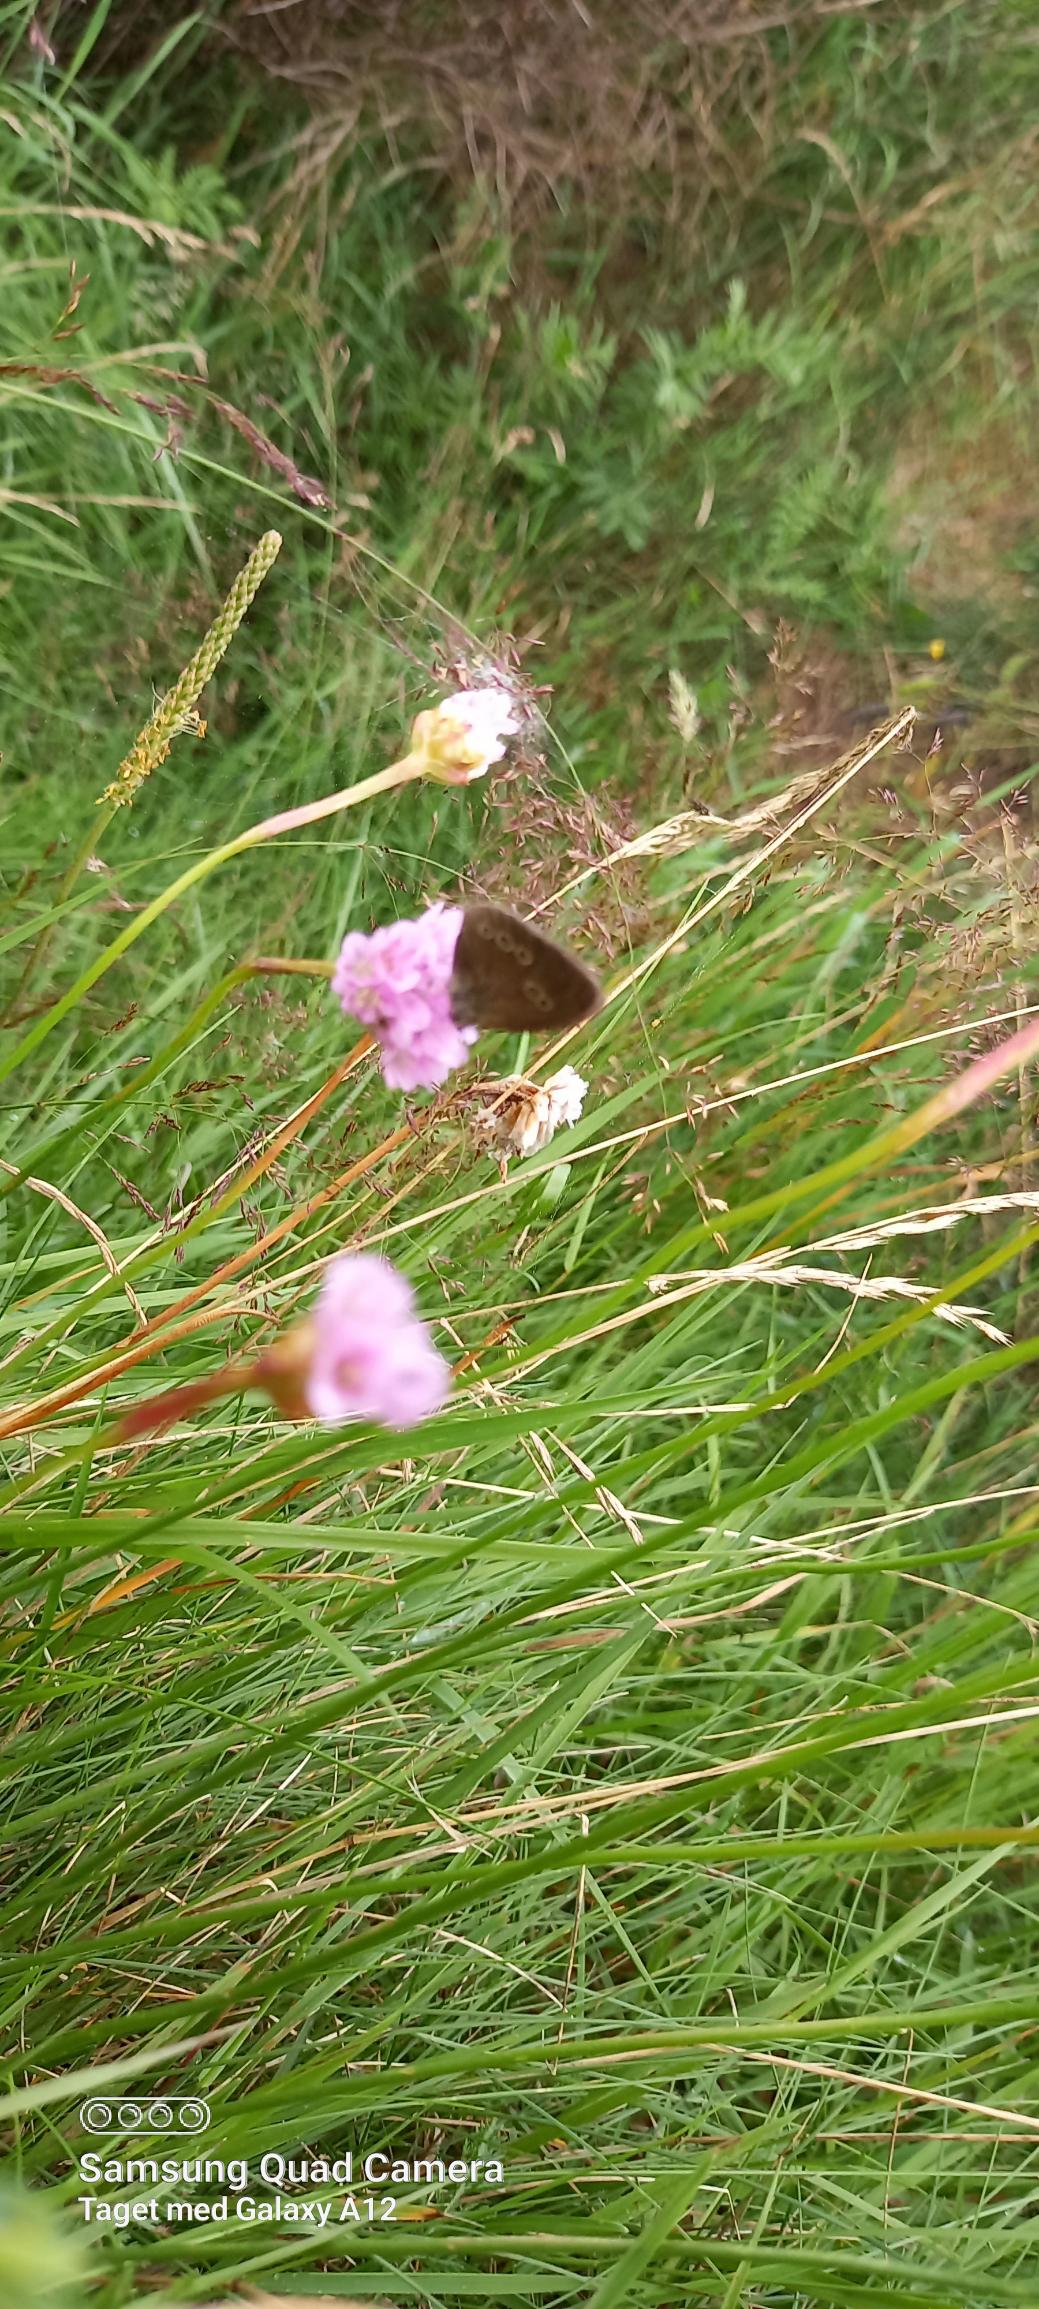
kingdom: Animalia
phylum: Arthropoda
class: Insecta
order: Lepidoptera
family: Nymphalidae
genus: Aphantopus
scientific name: Aphantopus hyperantus
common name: Engrandøje
